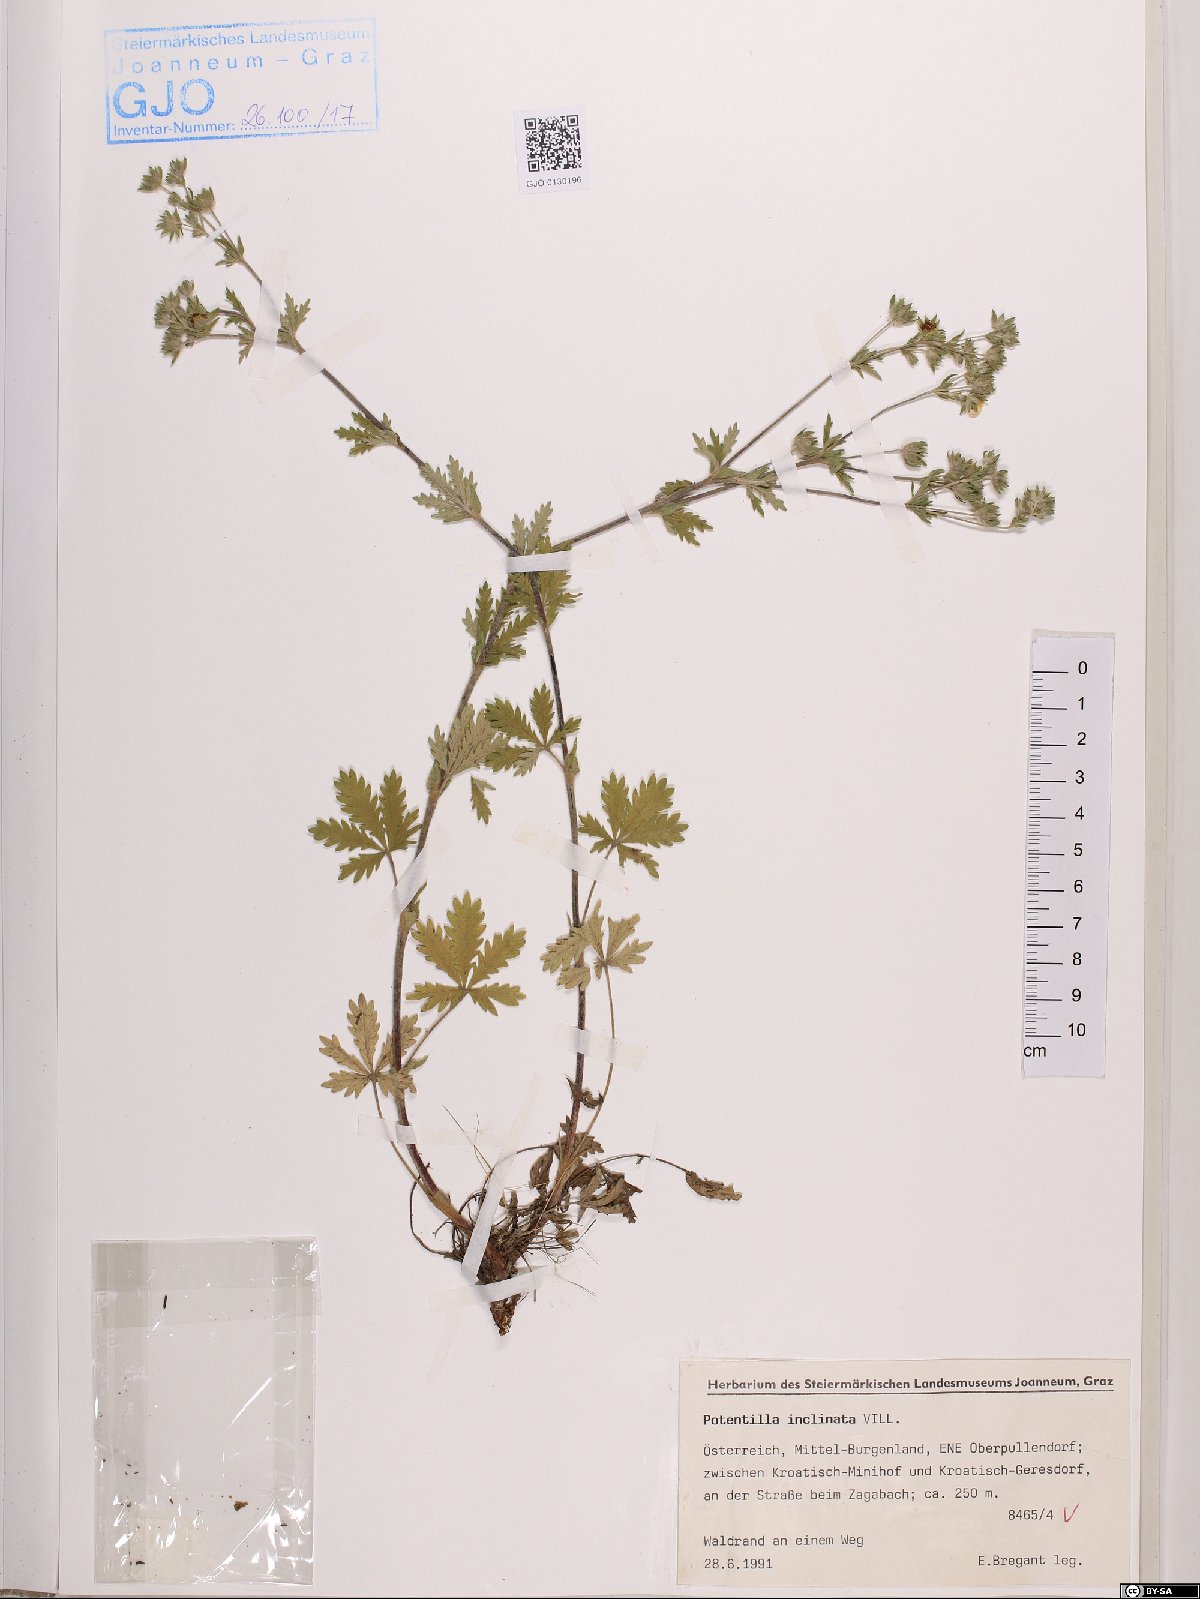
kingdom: Plantae
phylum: Tracheophyta
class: Magnoliopsida
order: Rosales
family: Rosaceae
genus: Potentilla
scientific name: Potentilla inclinata
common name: Grey cinquefoil
